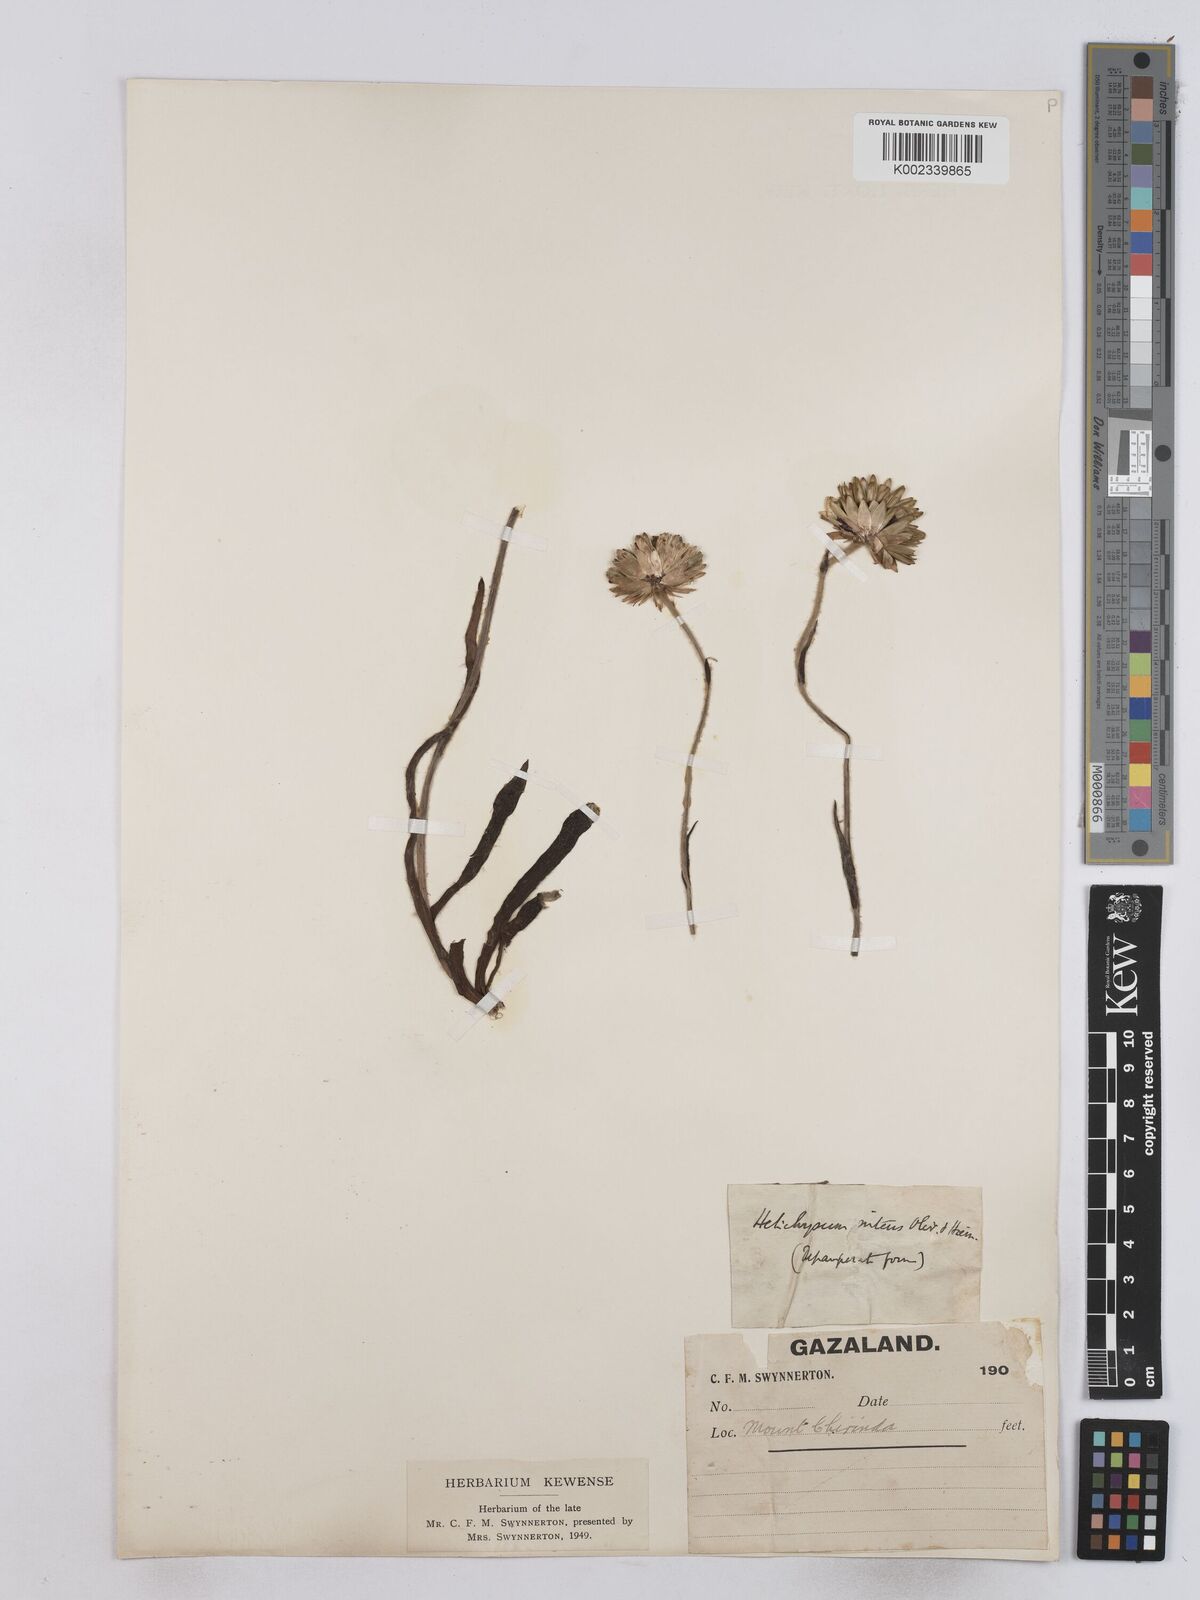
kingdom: Plantae
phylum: Tracheophyta
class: Magnoliopsida
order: Asterales
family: Asteraceae
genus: Helichrysum
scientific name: Helichrysum nitens
